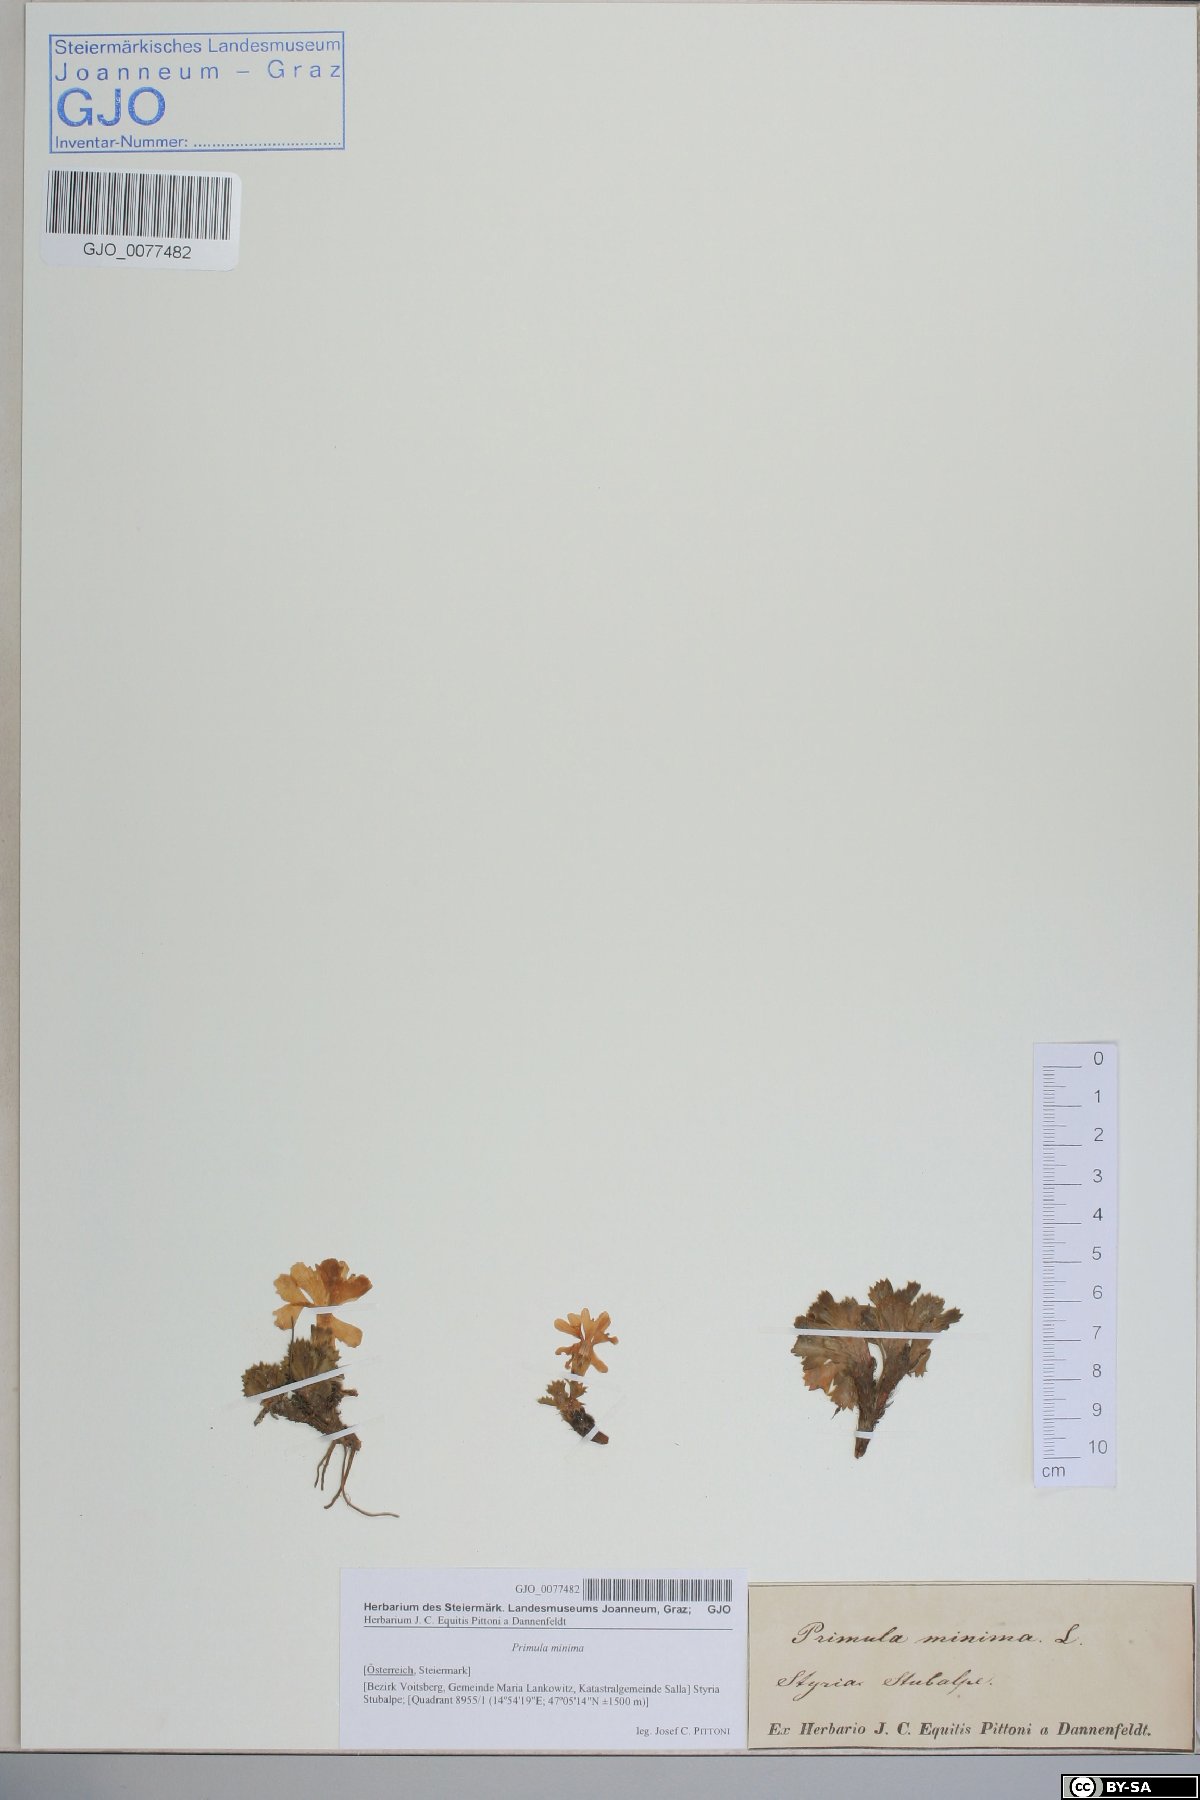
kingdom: Plantae
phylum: Tracheophyta
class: Magnoliopsida
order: Ericales
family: Primulaceae
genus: Primula
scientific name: Primula minima
